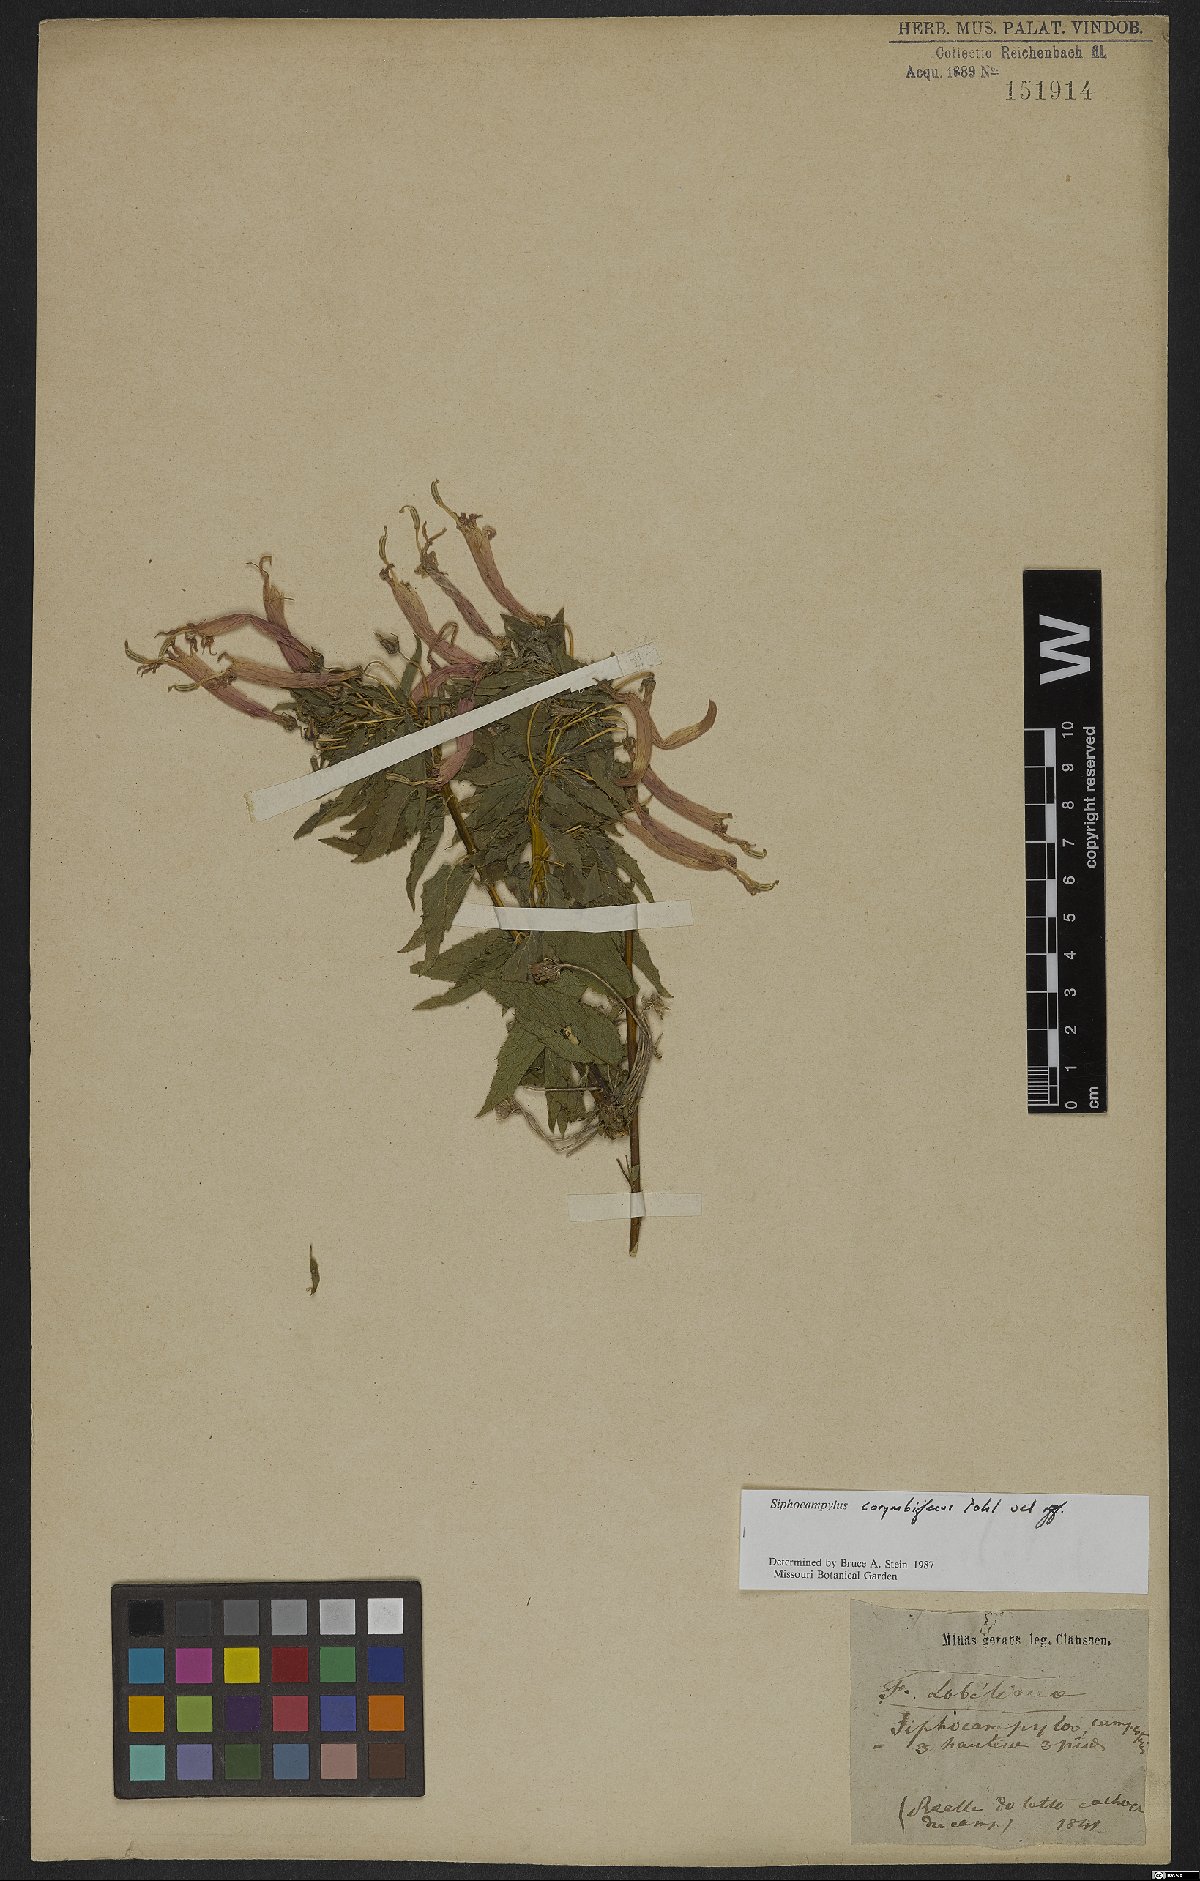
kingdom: Plantae
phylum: Tracheophyta
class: Magnoliopsida
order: Asterales
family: Campanulaceae
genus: Siphocampylus
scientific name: Siphocampylus corymbiferus
